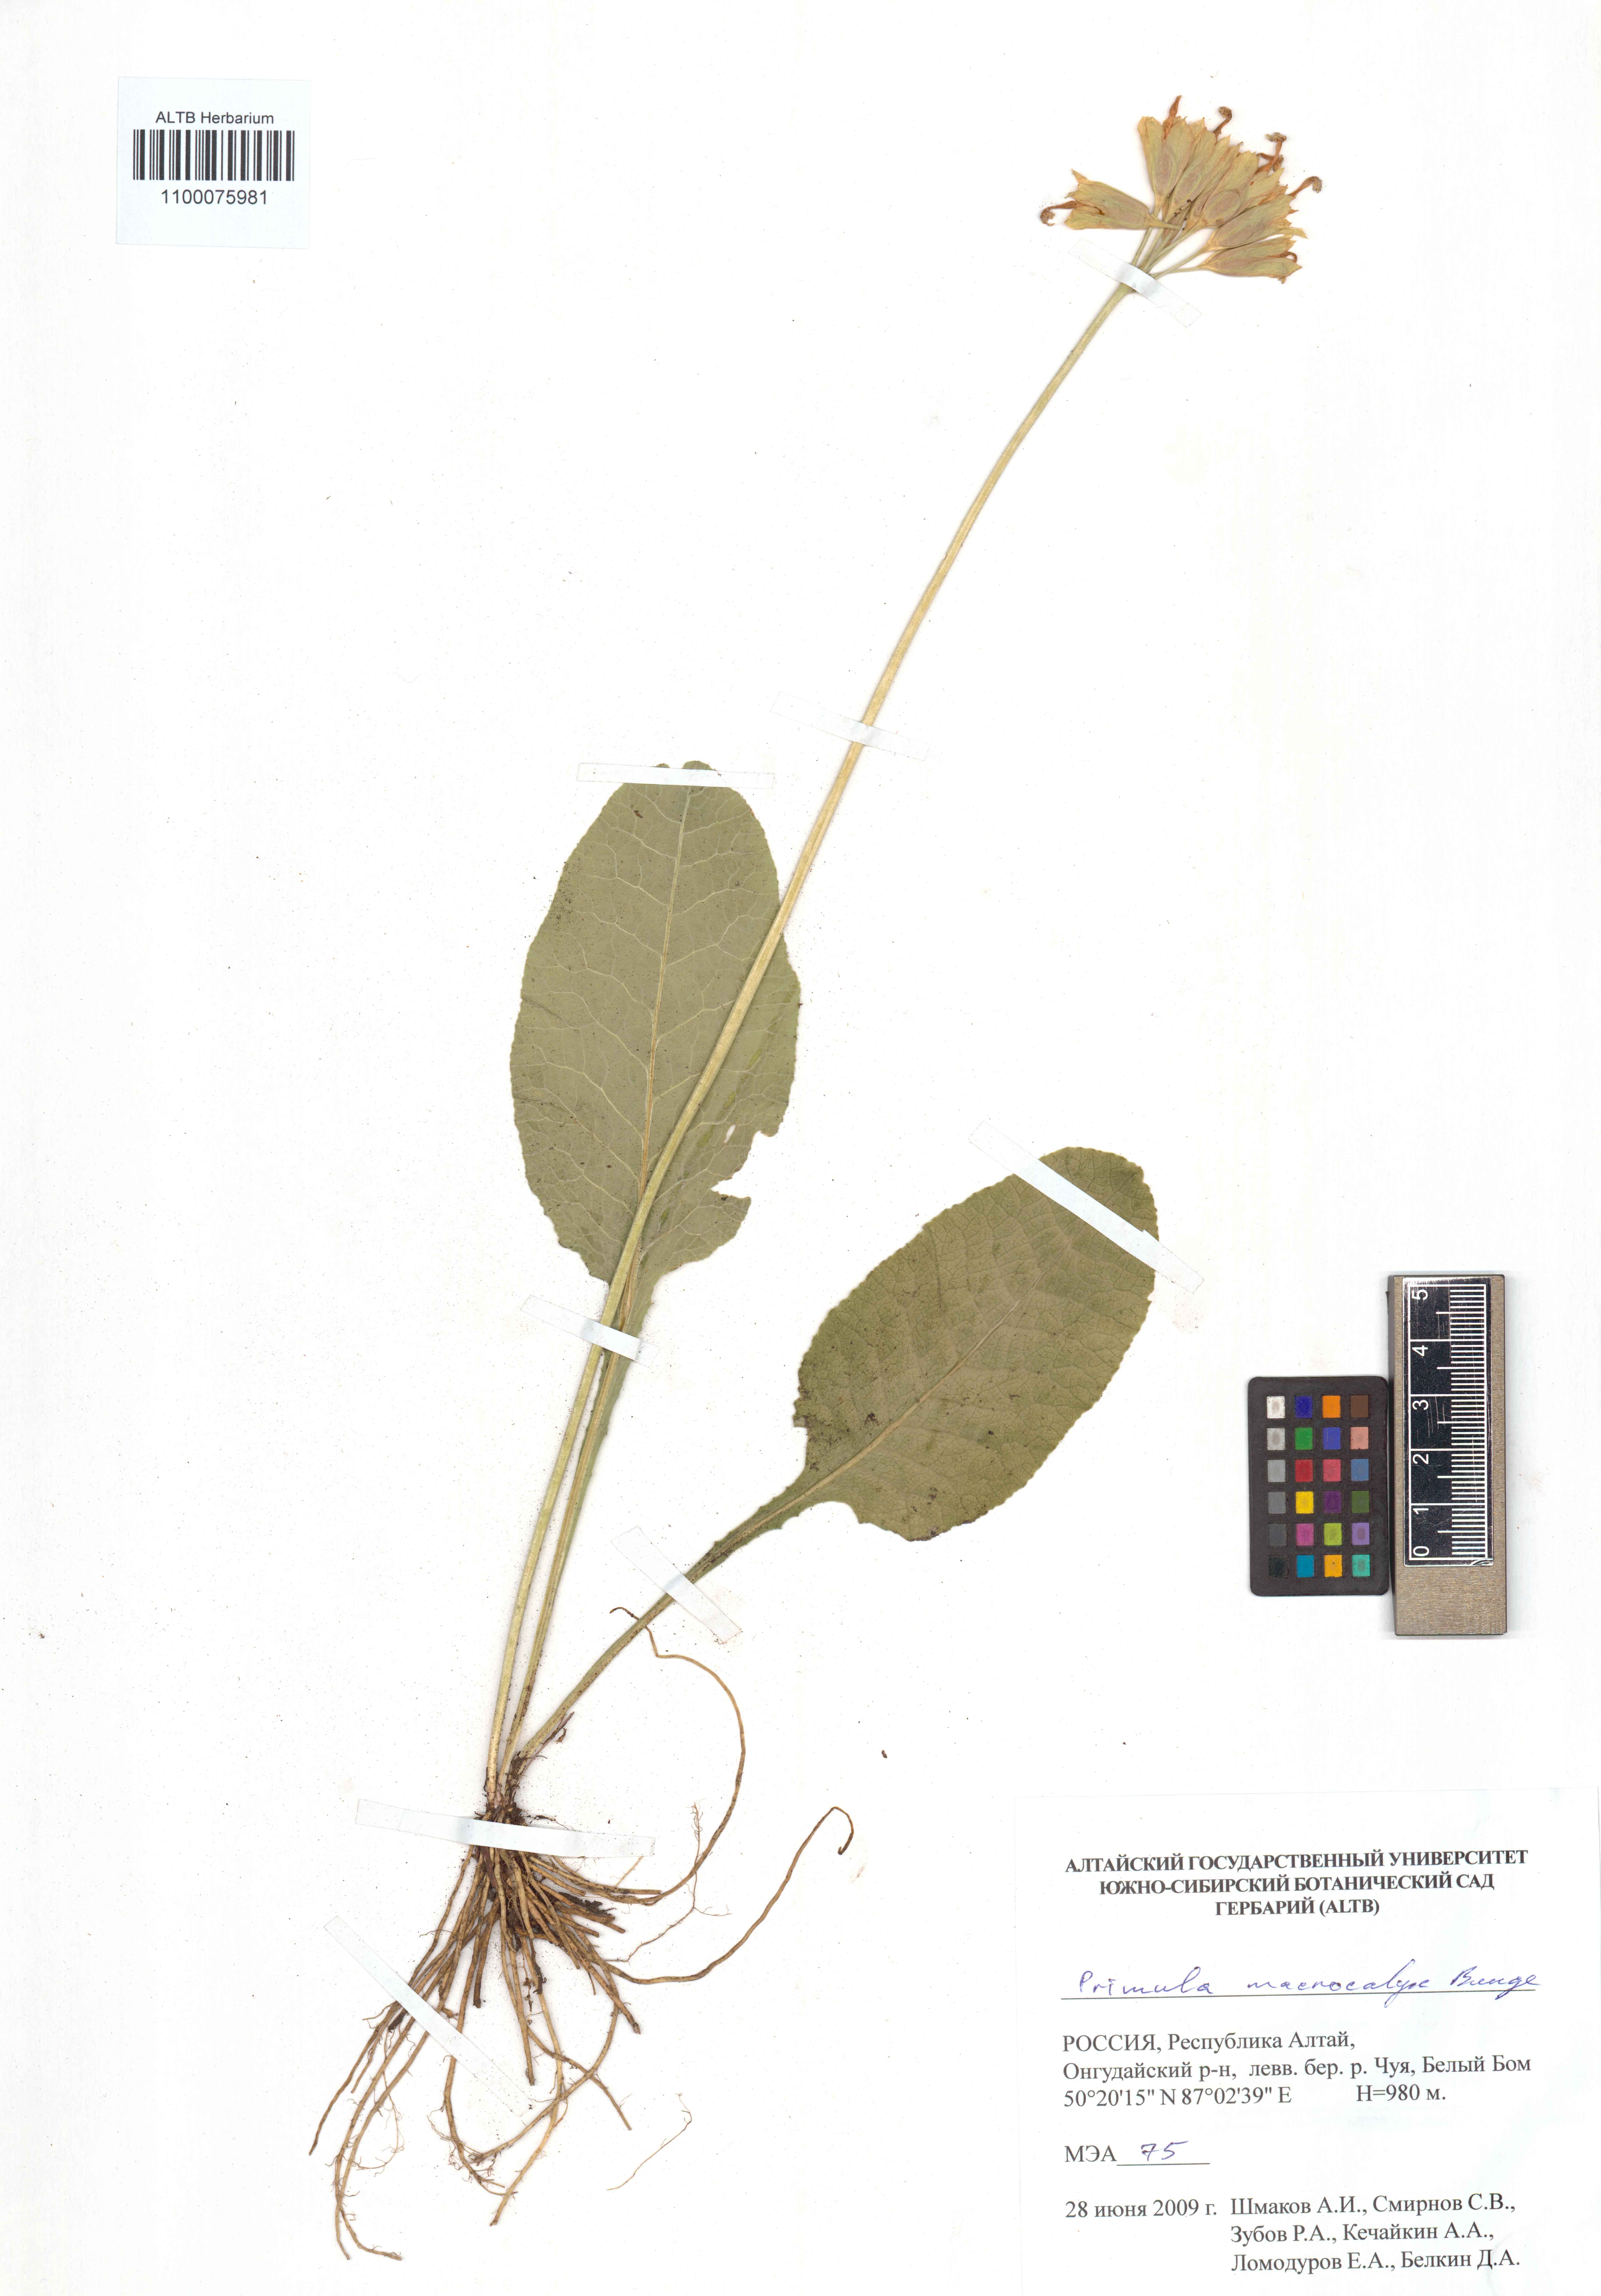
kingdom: Plantae
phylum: Tracheophyta
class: Magnoliopsida
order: Ericales
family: Primulaceae
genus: Primula
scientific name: Primula veris
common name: Cowslip
